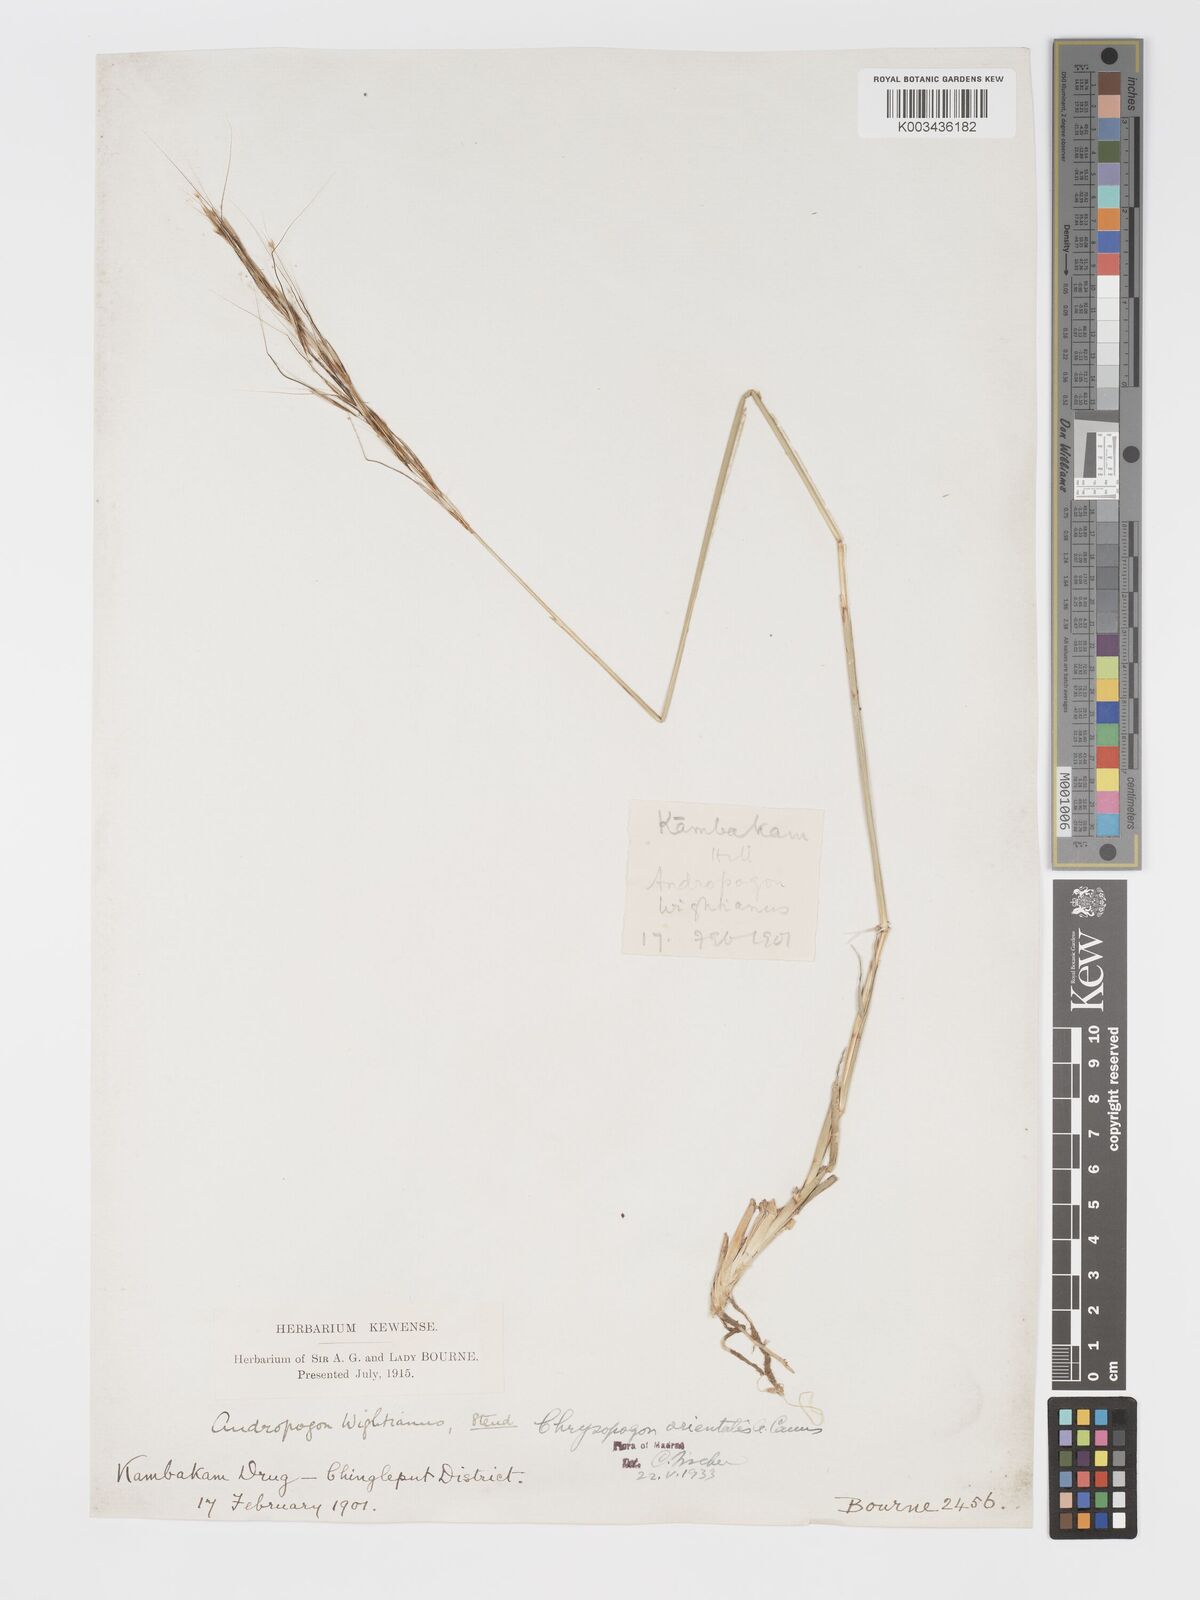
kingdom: Plantae
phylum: Tracheophyta
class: Liliopsida
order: Poales
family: Poaceae
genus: Chrysopogon
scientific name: Chrysopogon orientalis
